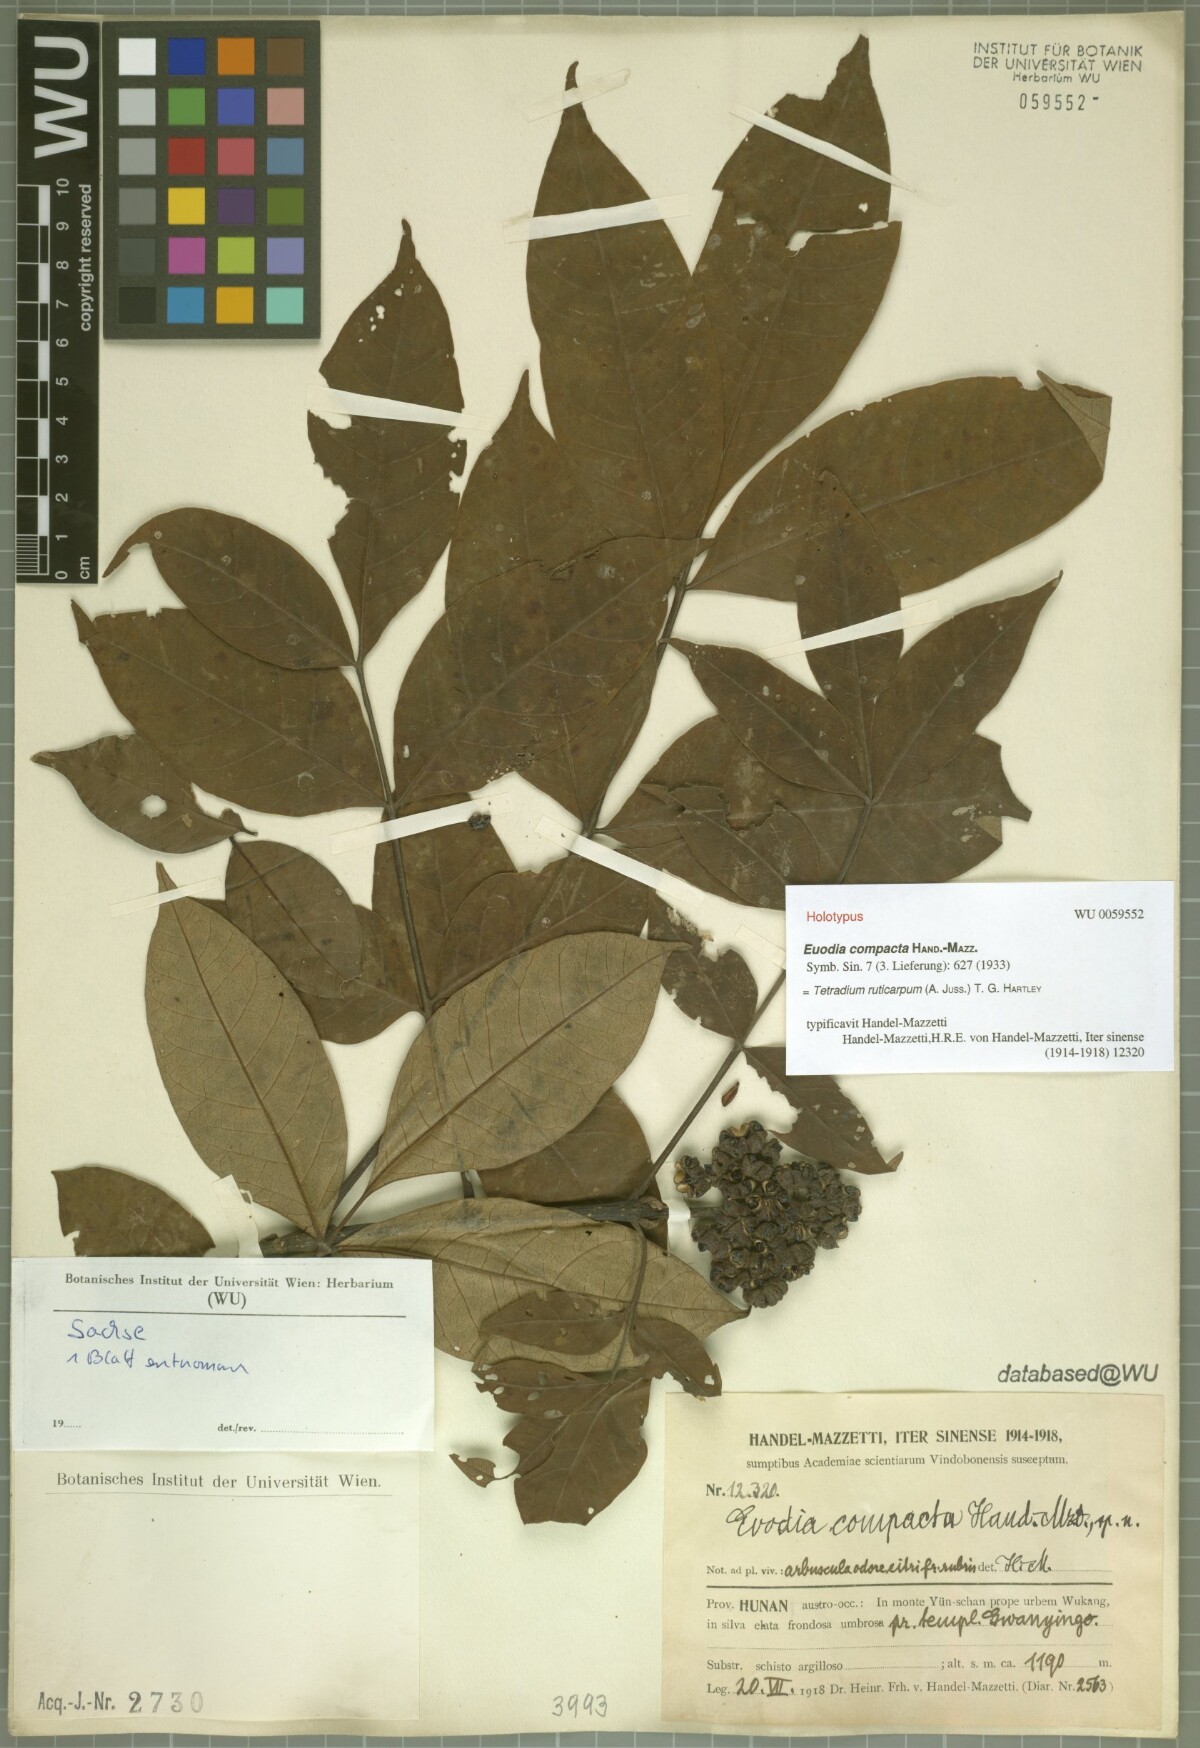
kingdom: Plantae
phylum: Tracheophyta
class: Magnoliopsida
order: Sapindales
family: Rutaceae
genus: Tetradium
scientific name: Tetradium ruticarpum
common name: Evodia
